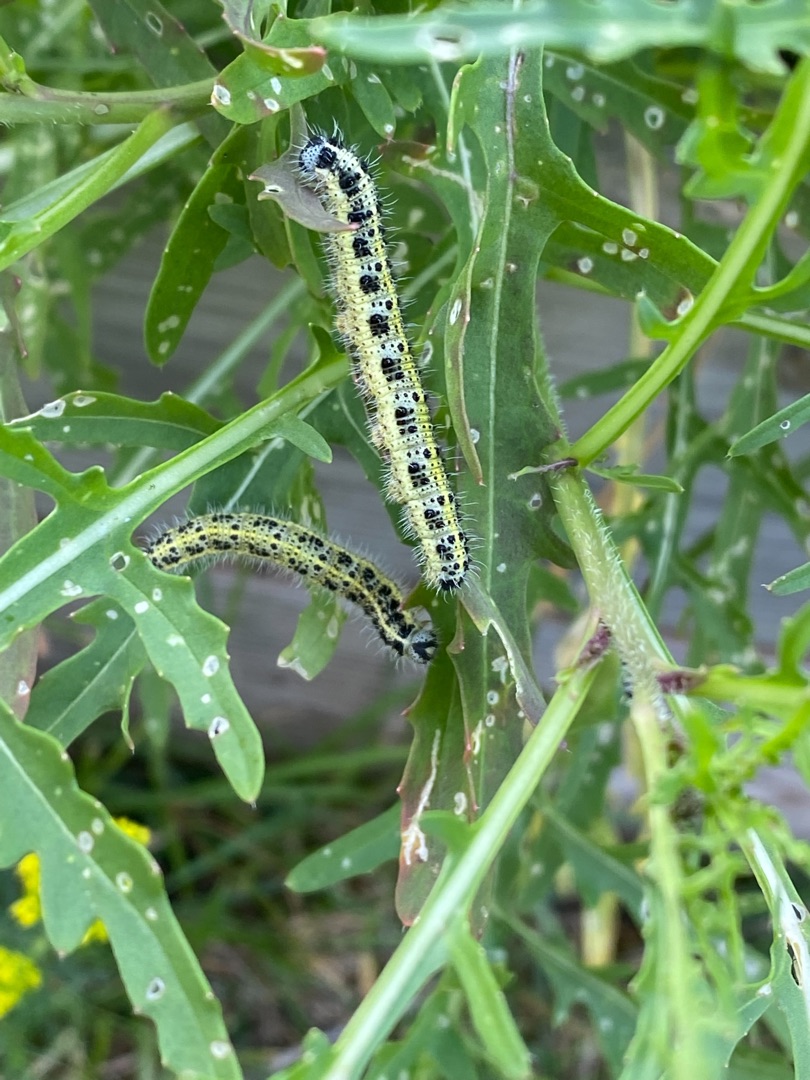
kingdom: Animalia
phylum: Arthropoda
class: Insecta
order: Lepidoptera
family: Pieridae
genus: Pieris
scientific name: Pieris brassicae
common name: Stor kålsommerfugl
